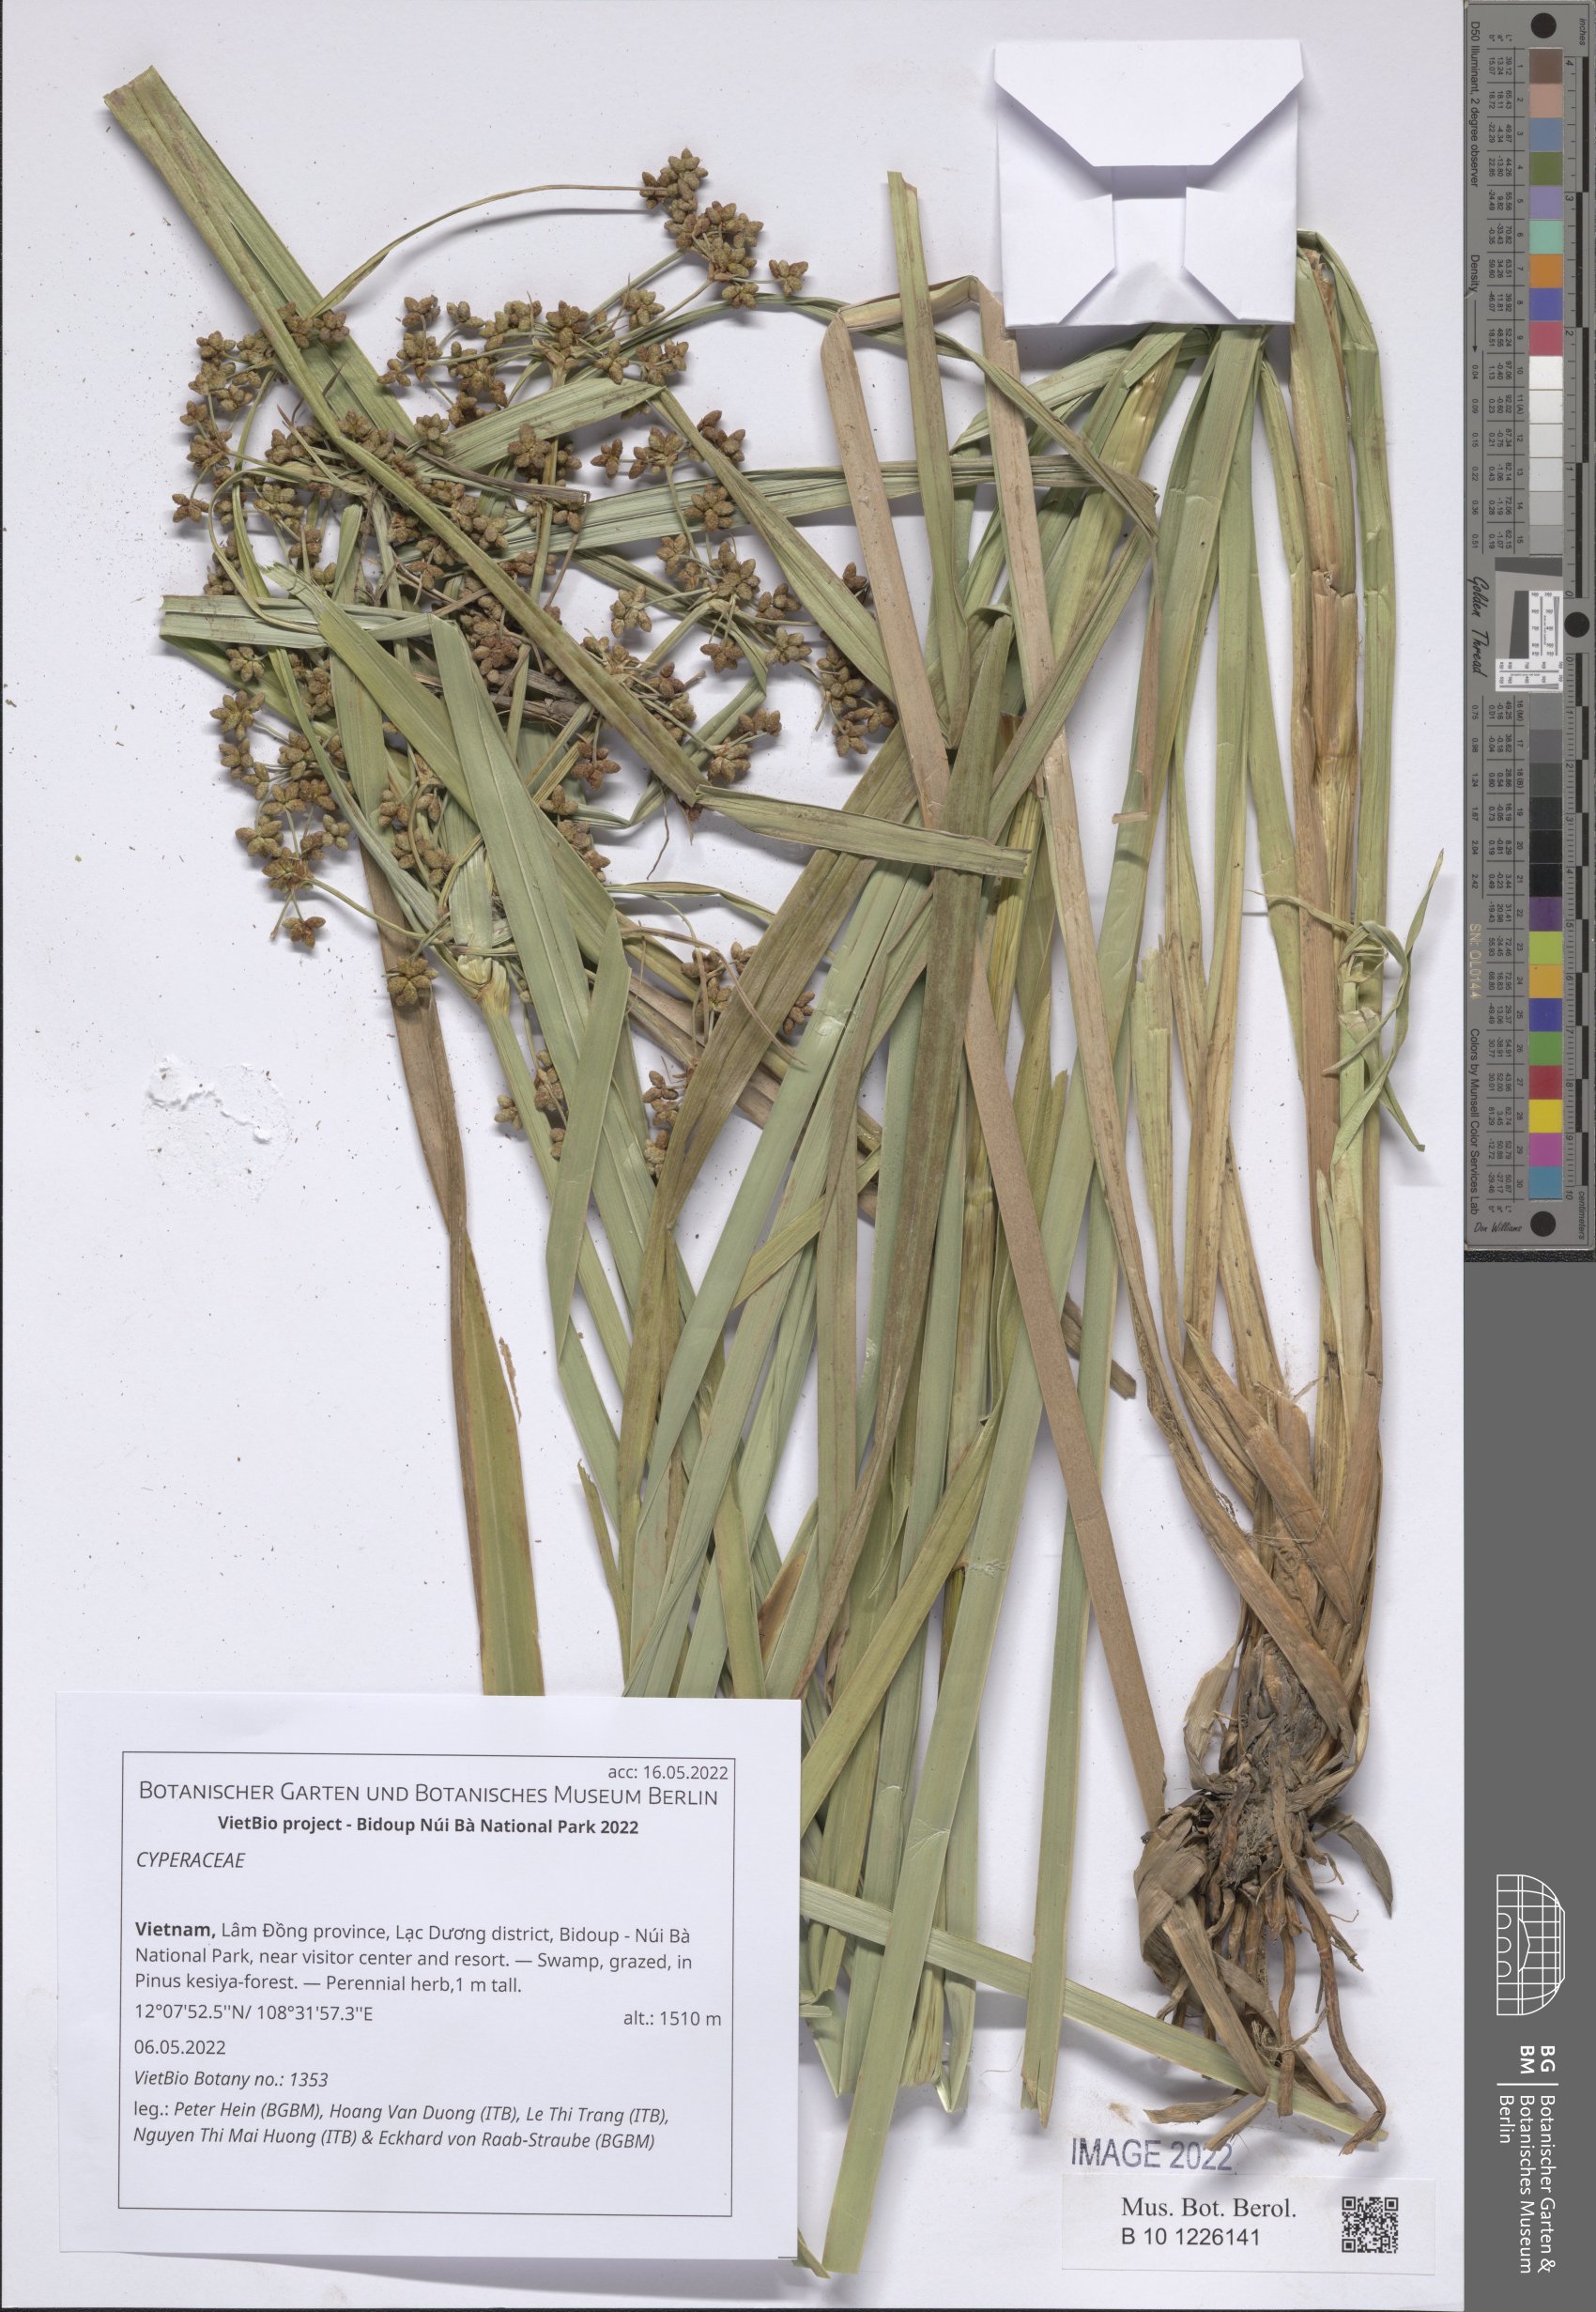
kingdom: Plantae
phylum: Tracheophyta
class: Liliopsida
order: Poales
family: Cyperaceae
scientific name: Cyperaceae
